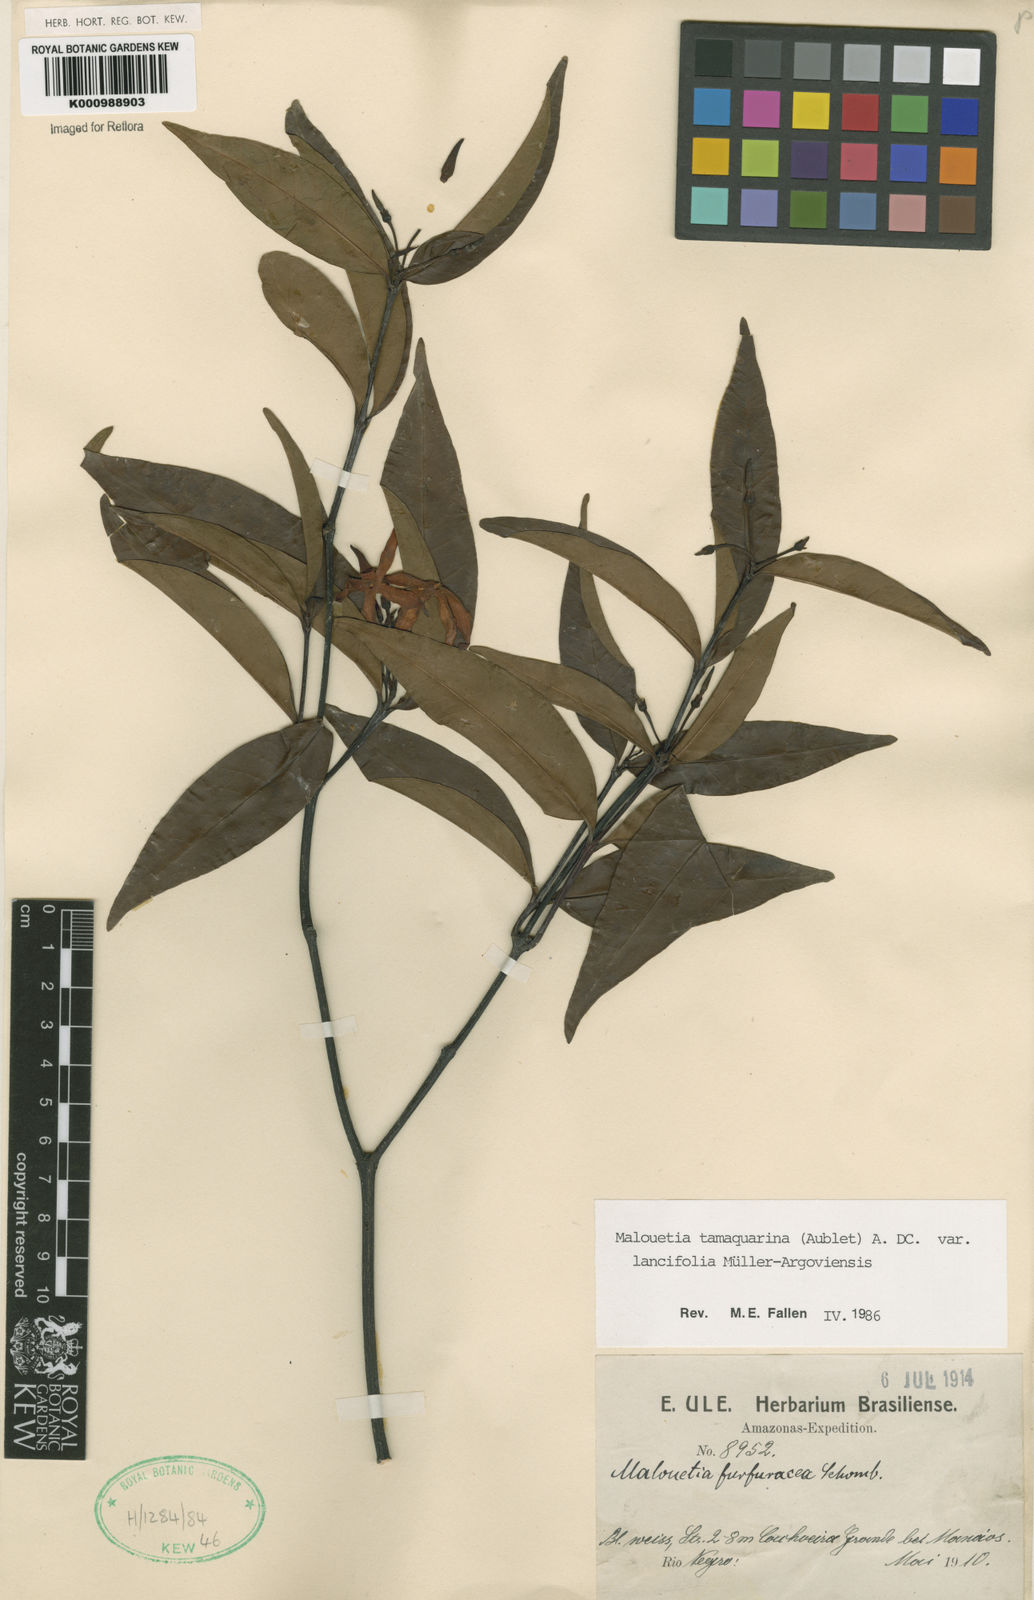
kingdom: Plantae
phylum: Tracheophyta
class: Magnoliopsida
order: Gentianales
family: Apocynaceae
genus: Malouetia
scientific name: Malouetia tamaquarina
